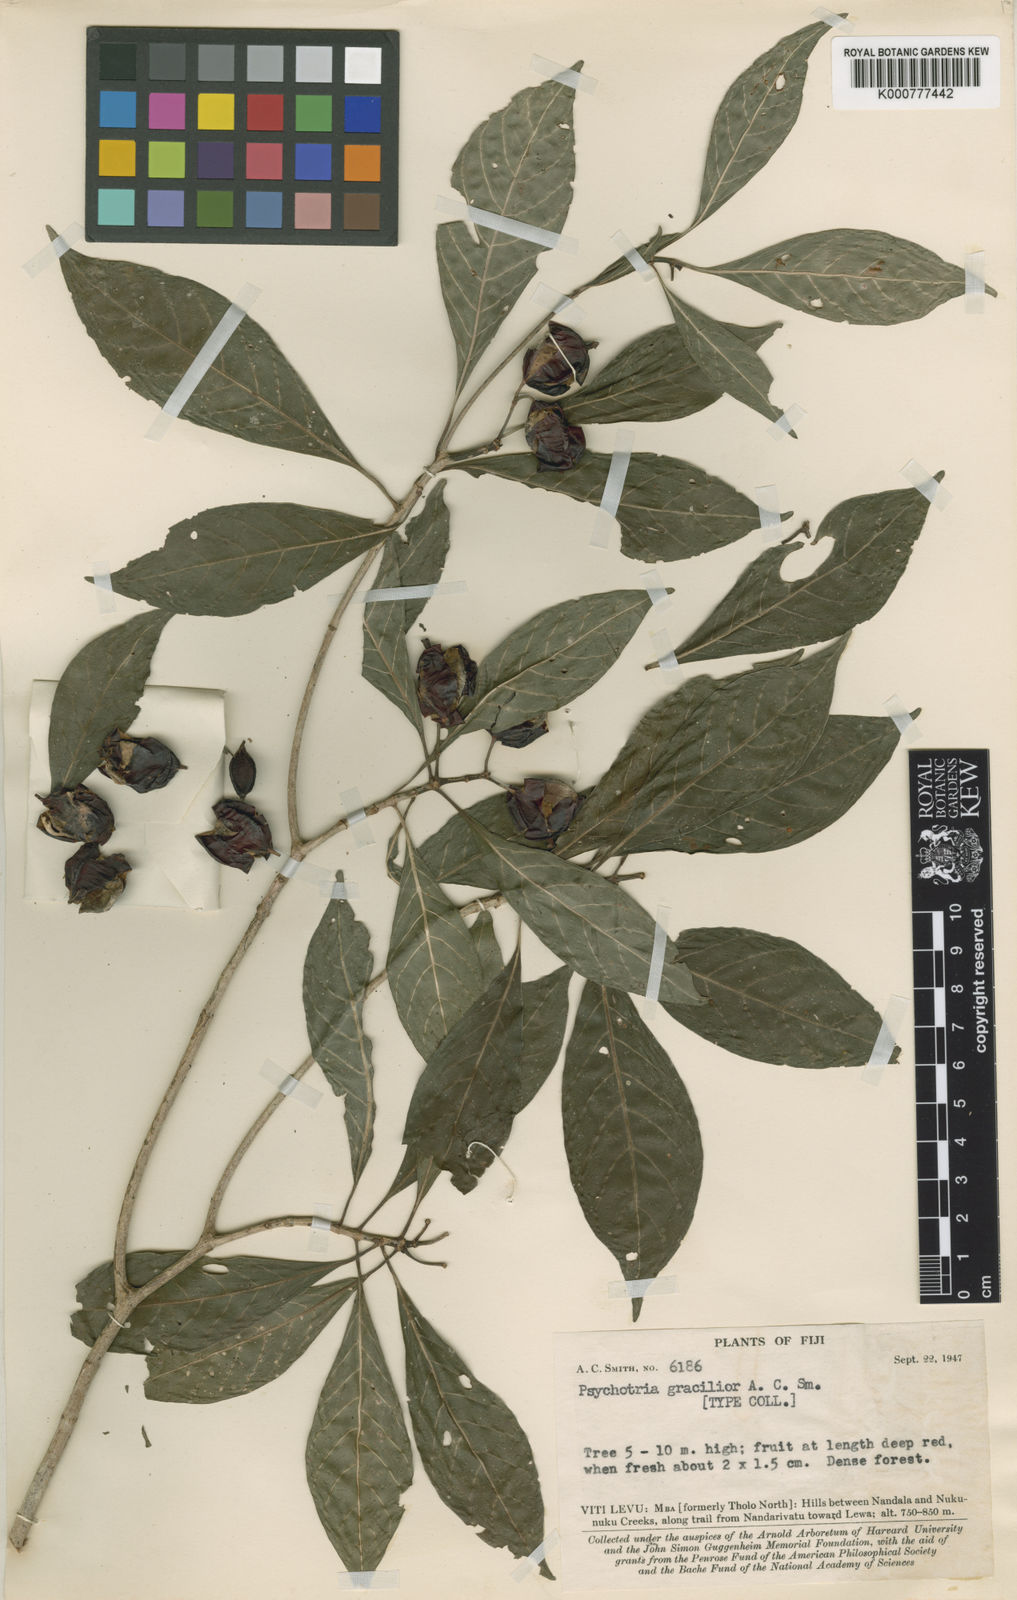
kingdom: Plantae
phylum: Tracheophyta
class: Magnoliopsida
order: Gentianales
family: Rubiaceae
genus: Psychotria
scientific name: Psychotria gracilior
